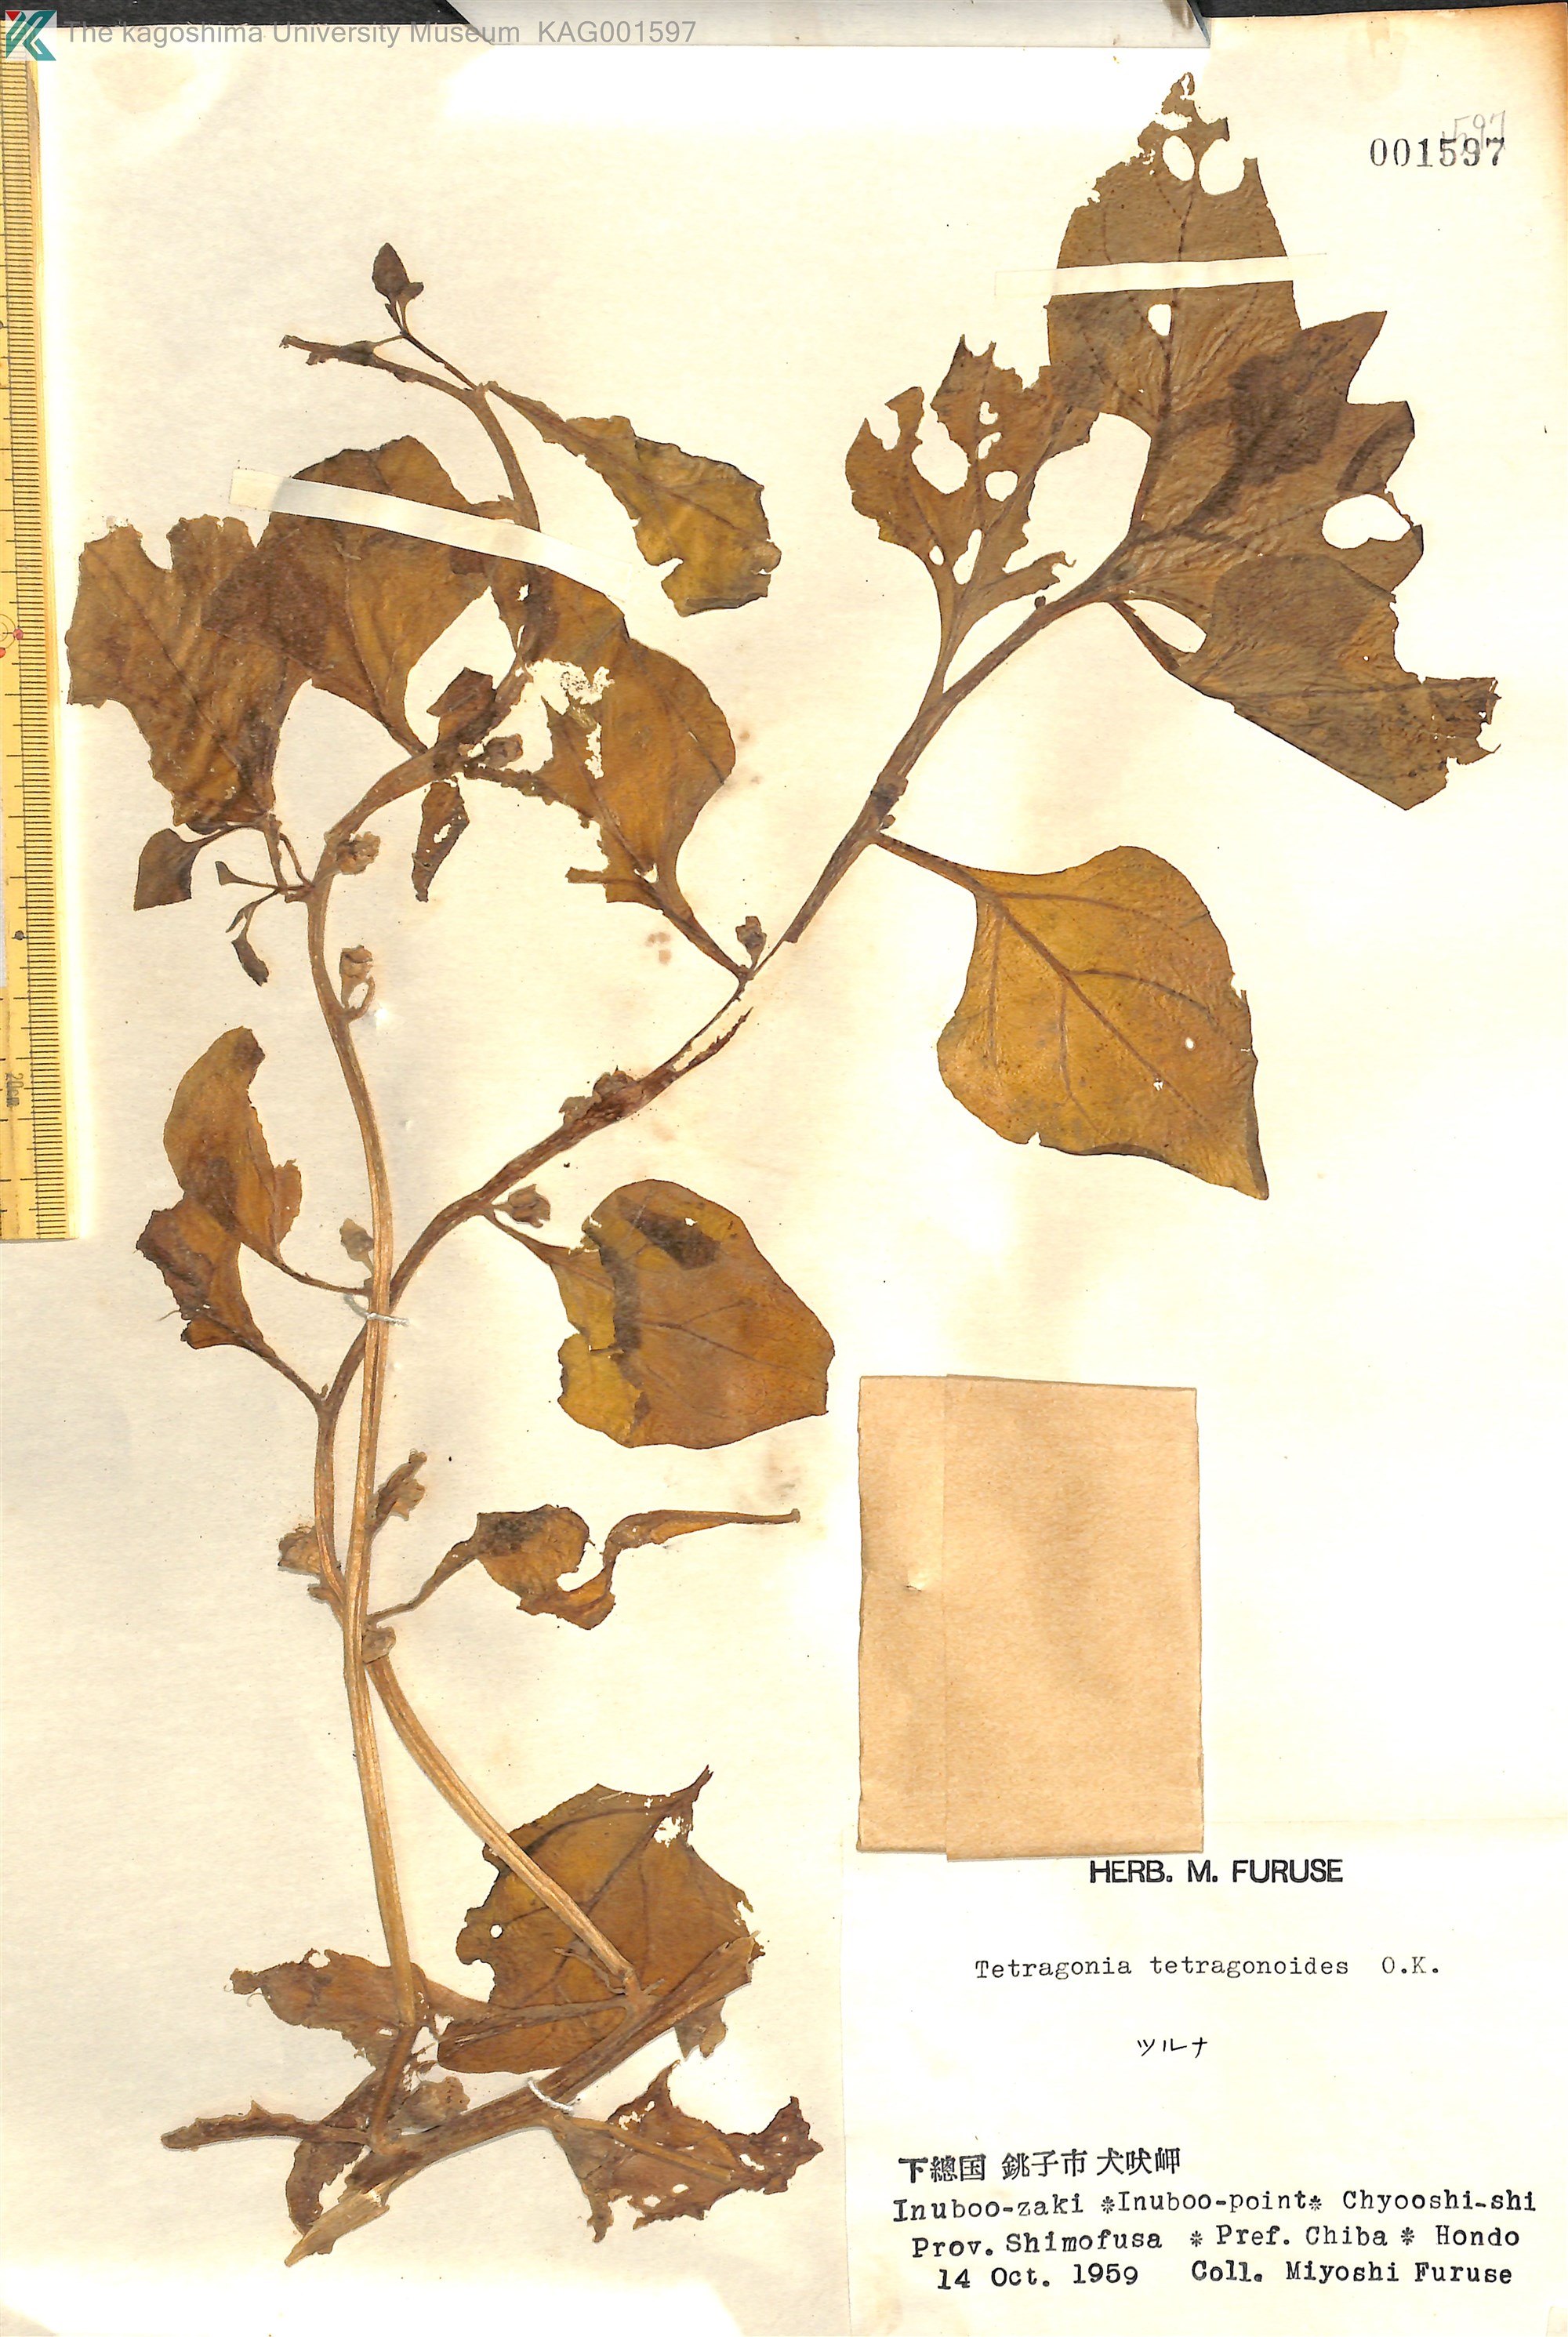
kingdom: Plantae
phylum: Tracheophyta
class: Magnoliopsida
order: Caryophyllales
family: Aizoaceae
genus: Tetragonia
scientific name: Tetragonia tetragonoides
